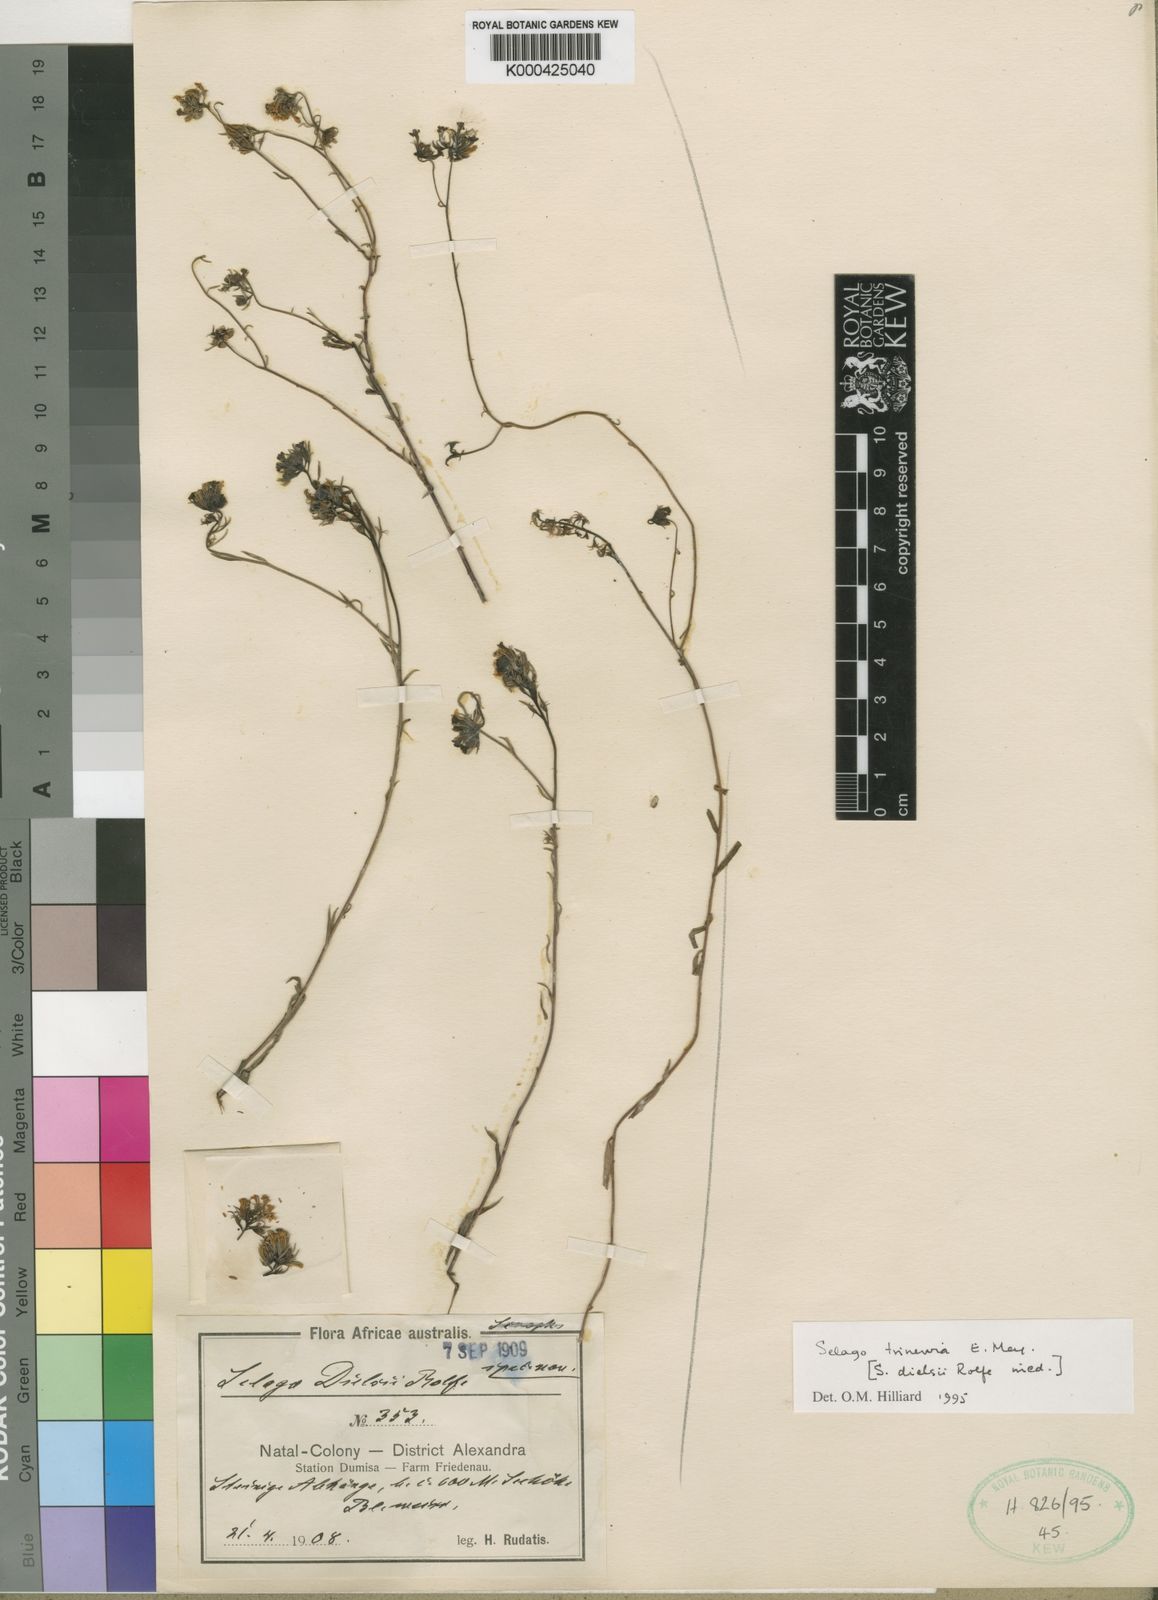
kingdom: Plantae
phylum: Tracheophyta
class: Magnoliopsida
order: Lamiales
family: Scrophulariaceae
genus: Selago
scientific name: Selago trinervia
